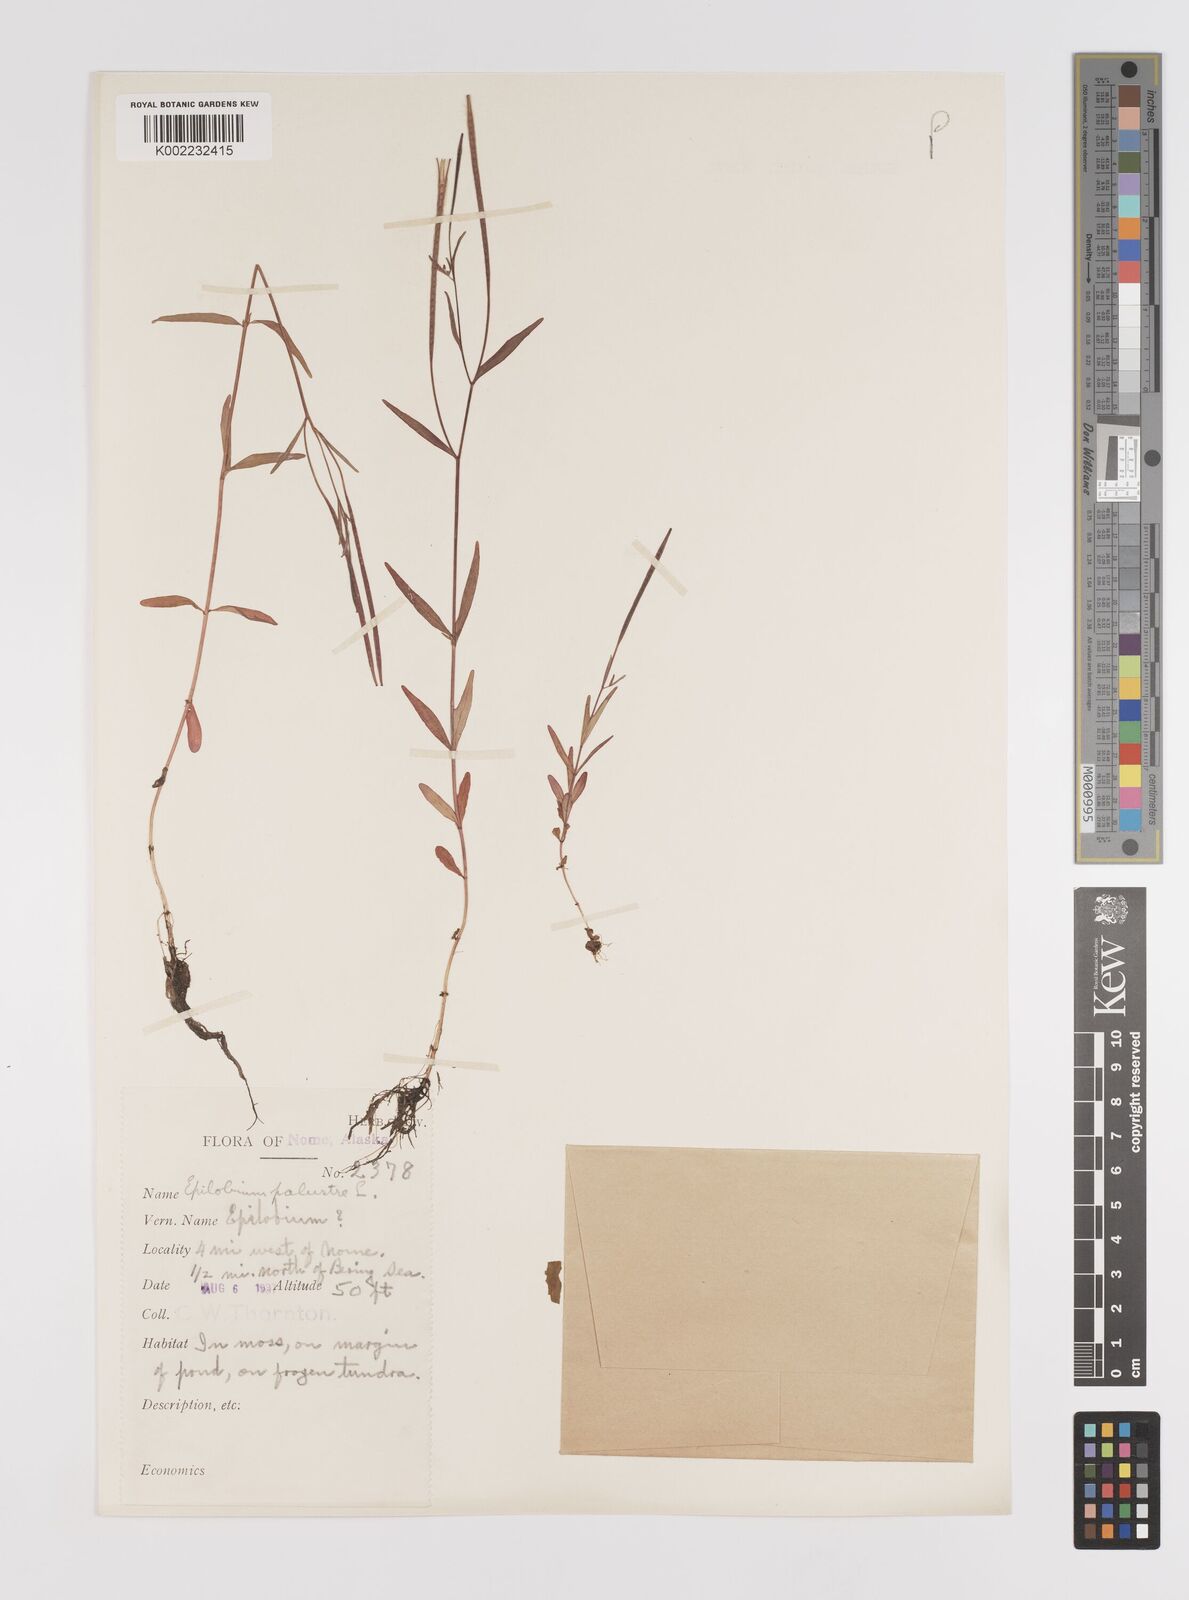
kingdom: Plantae
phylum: Tracheophyta
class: Magnoliopsida
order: Myrtales
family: Onagraceae
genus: Epilobium
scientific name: Epilobium palustre
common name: Marsh willowherb
